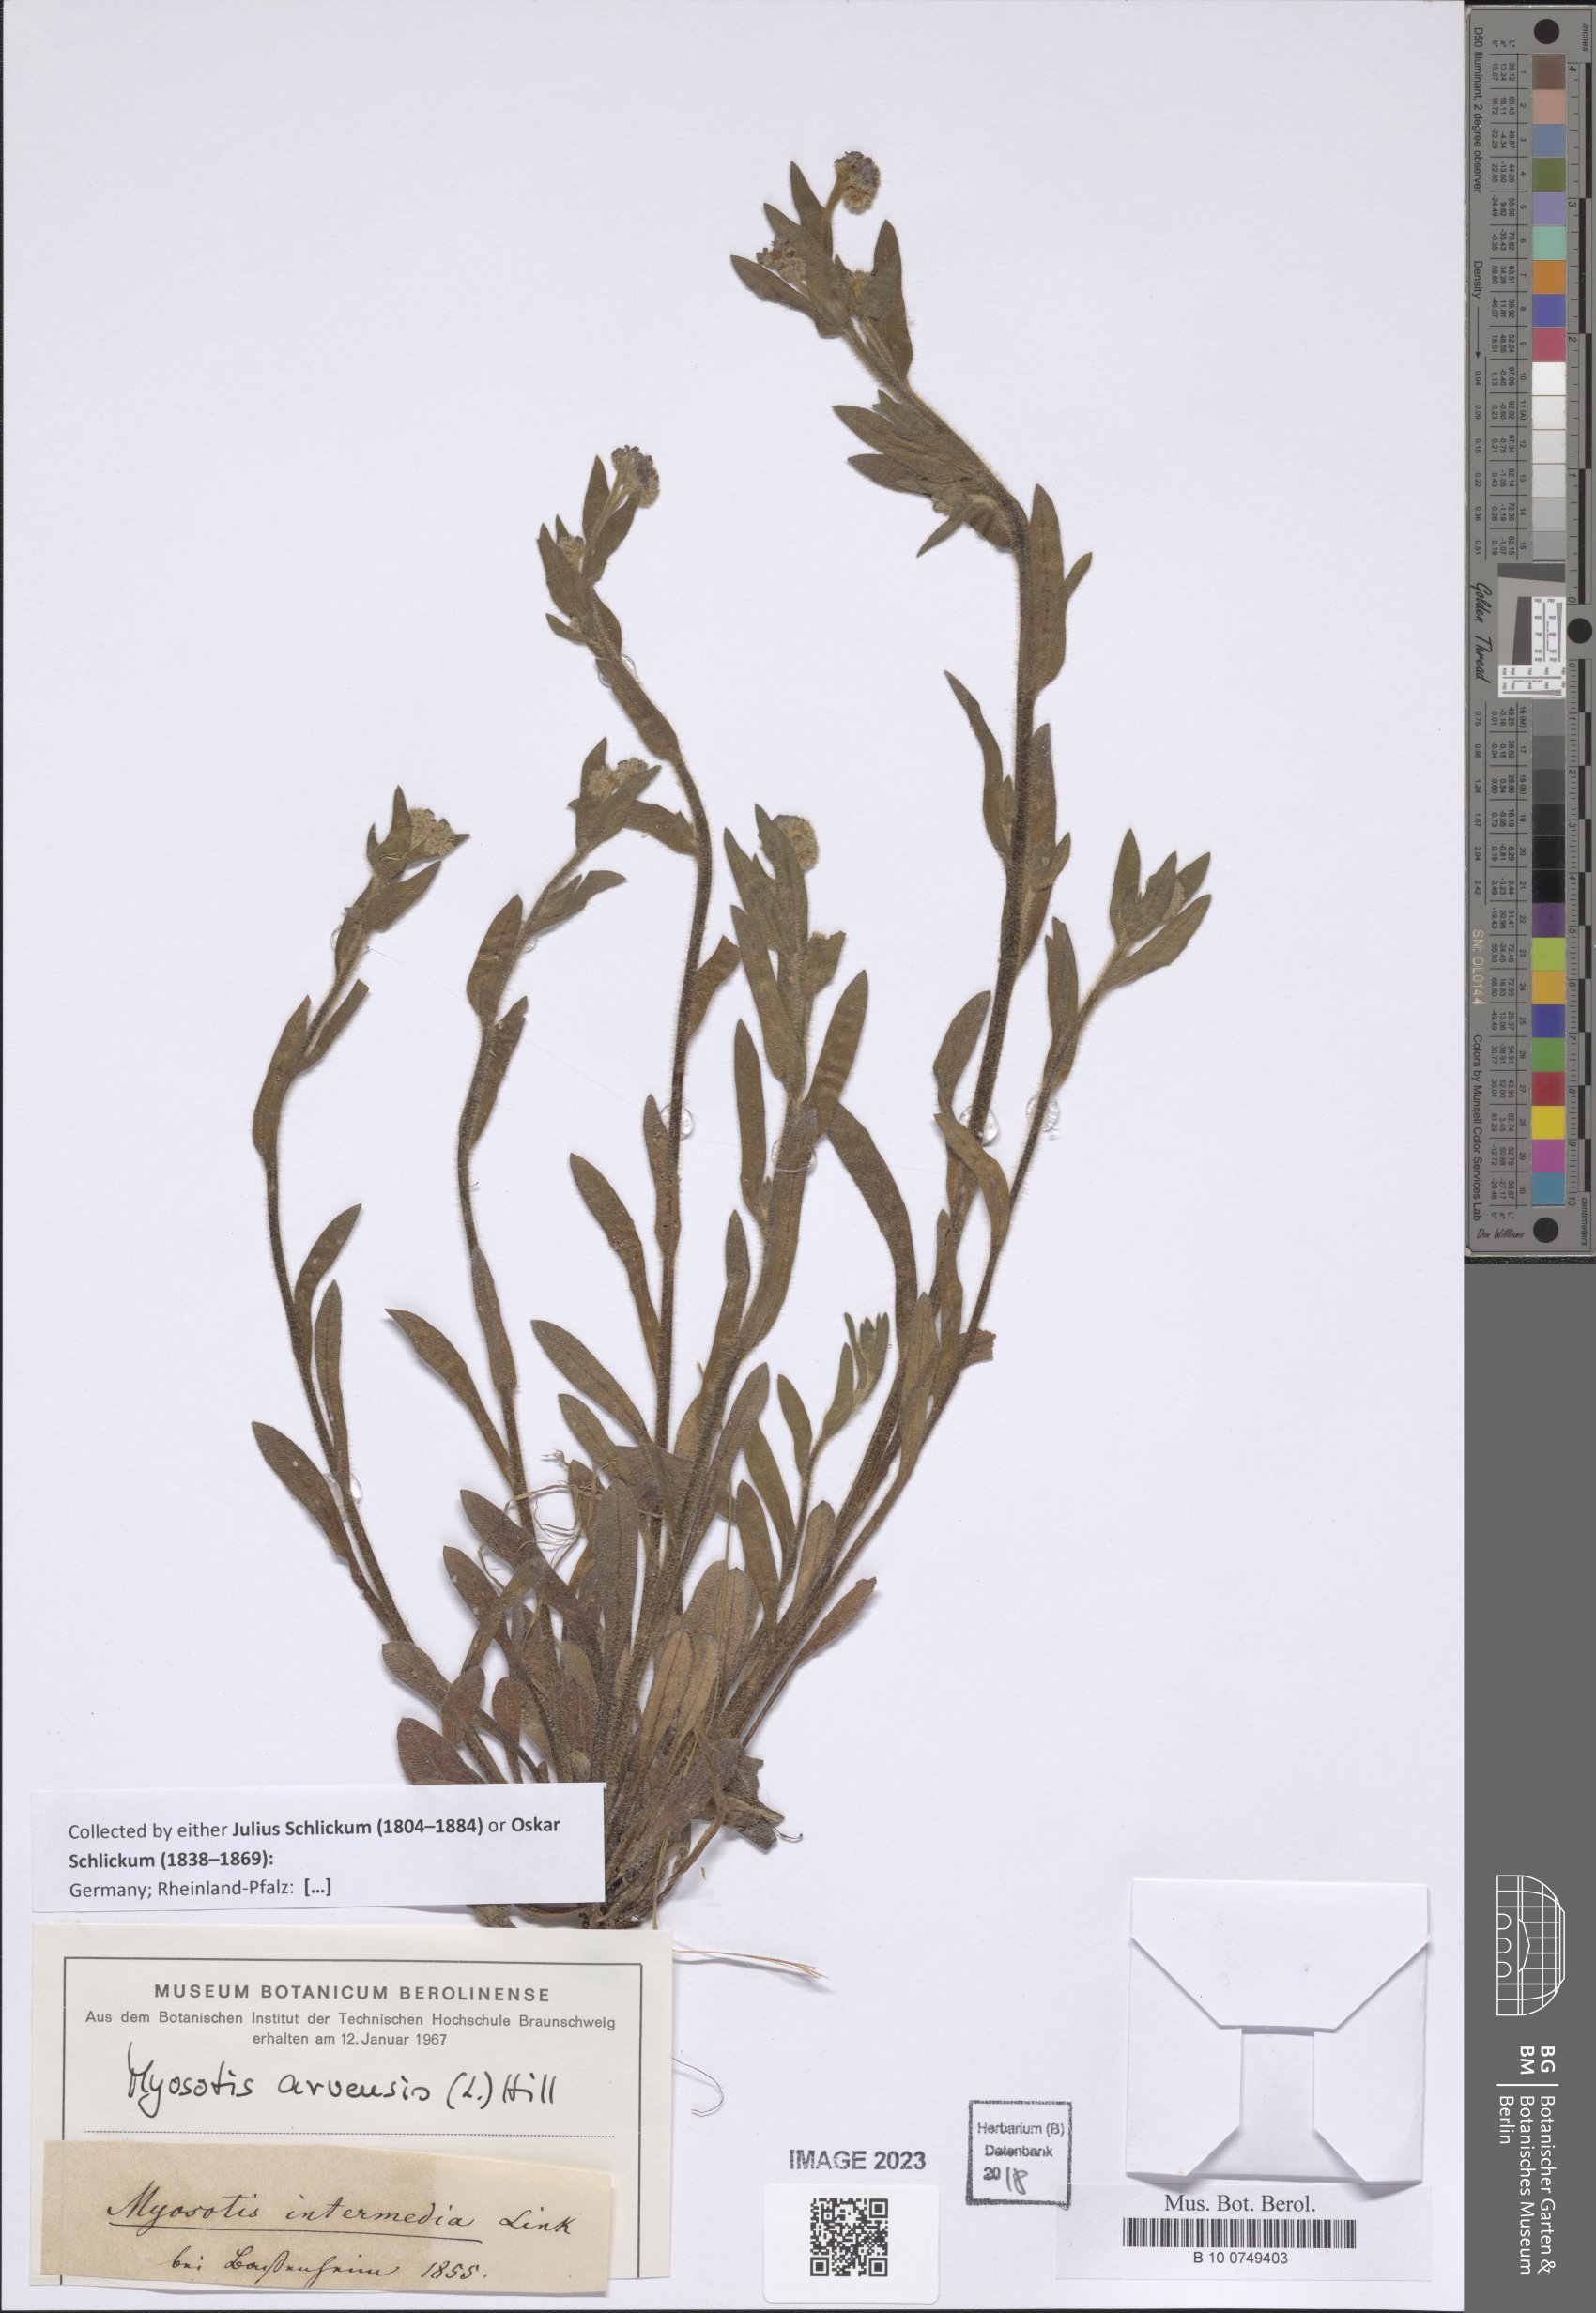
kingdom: Plantae
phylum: Tracheophyta
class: Magnoliopsida
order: Boraginales
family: Boraginaceae
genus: Myosotis
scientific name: Myosotis arvensis
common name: Field forget-me-not
